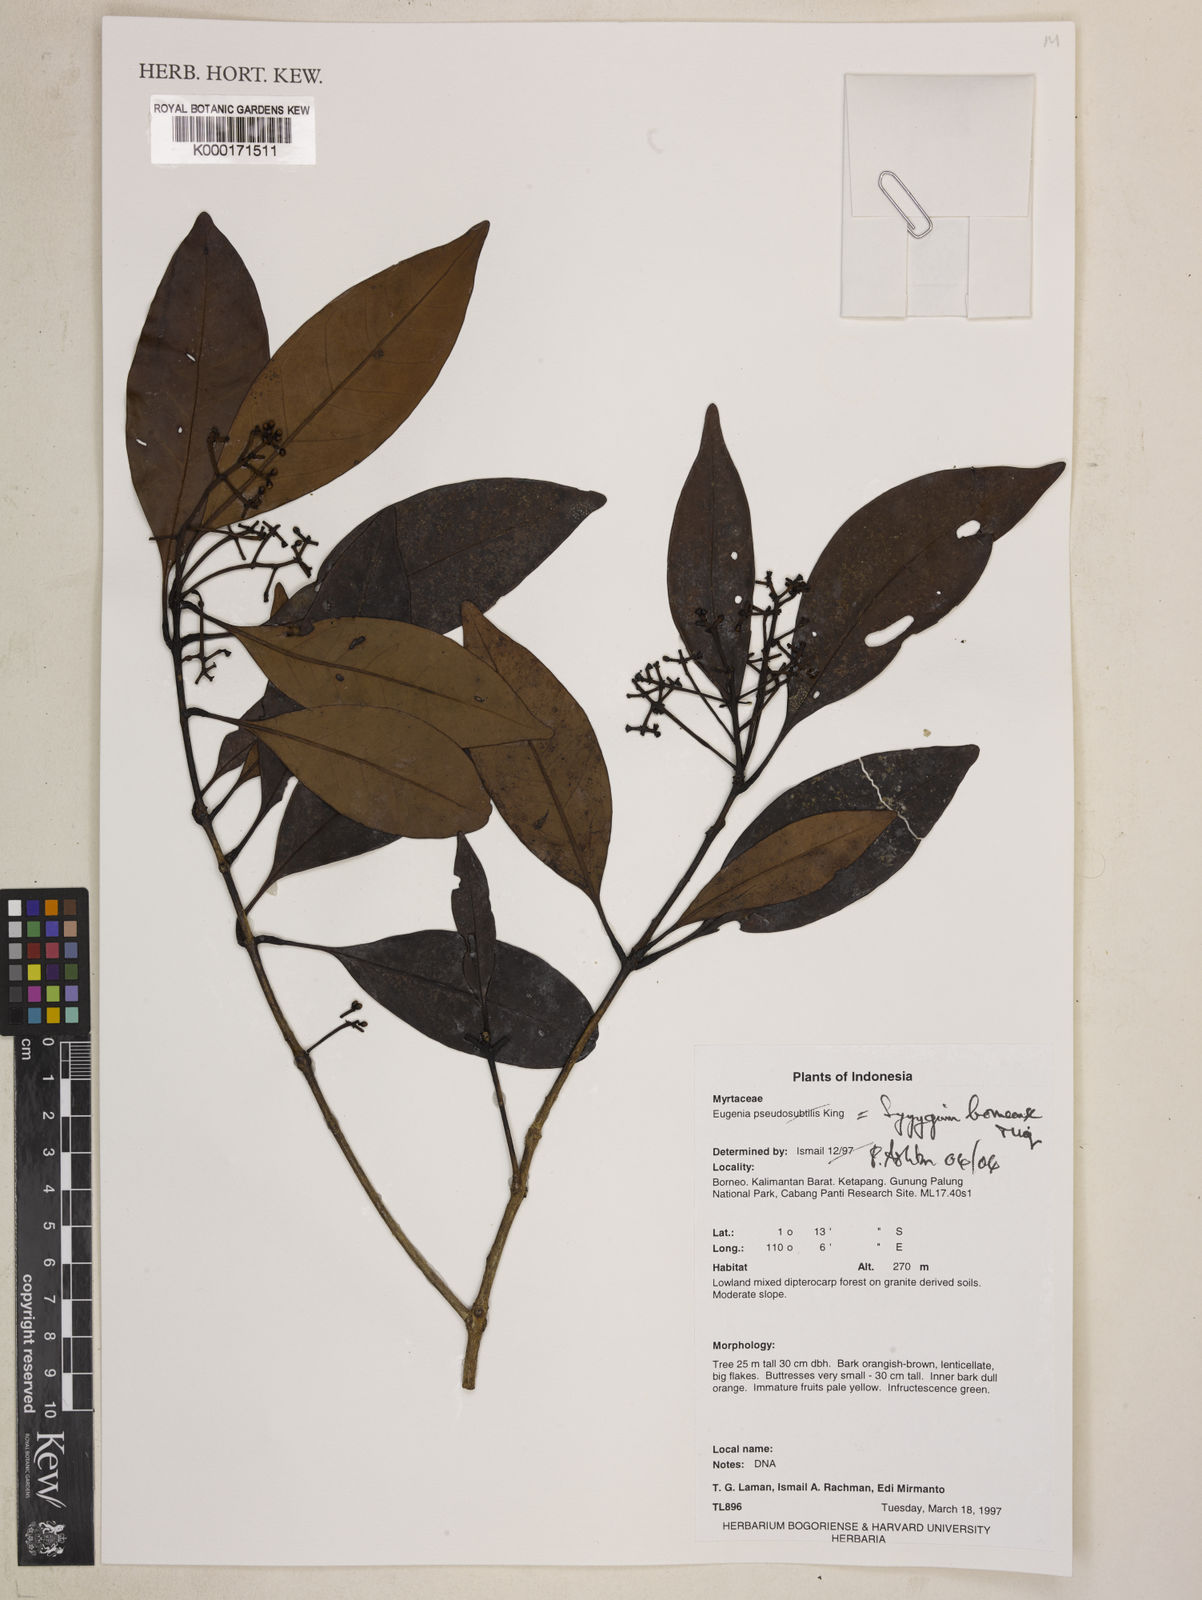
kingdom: Plantae
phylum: Tracheophyta
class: Magnoliopsida
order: Myrtales
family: Myrtaceae
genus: Syzygium
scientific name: Syzygium borneense
